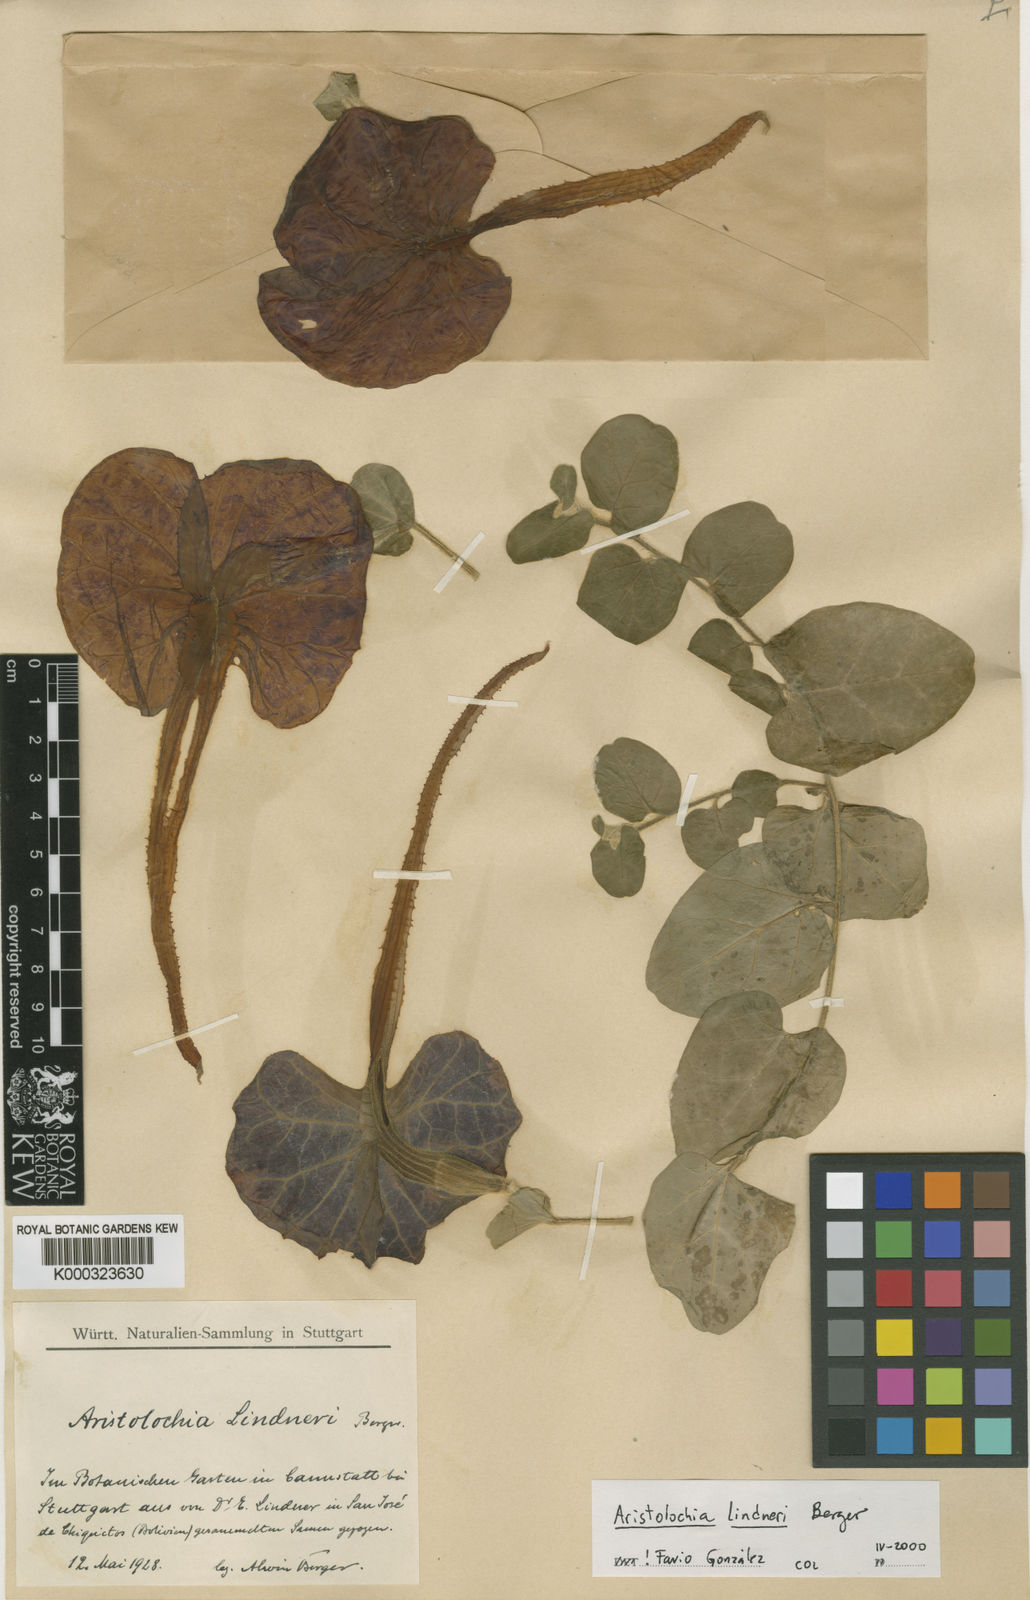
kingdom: Plantae
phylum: Tracheophyta
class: Magnoliopsida
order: Piperales
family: Aristolochiaceae
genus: Aristolochia
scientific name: Aristolochia lindneri
